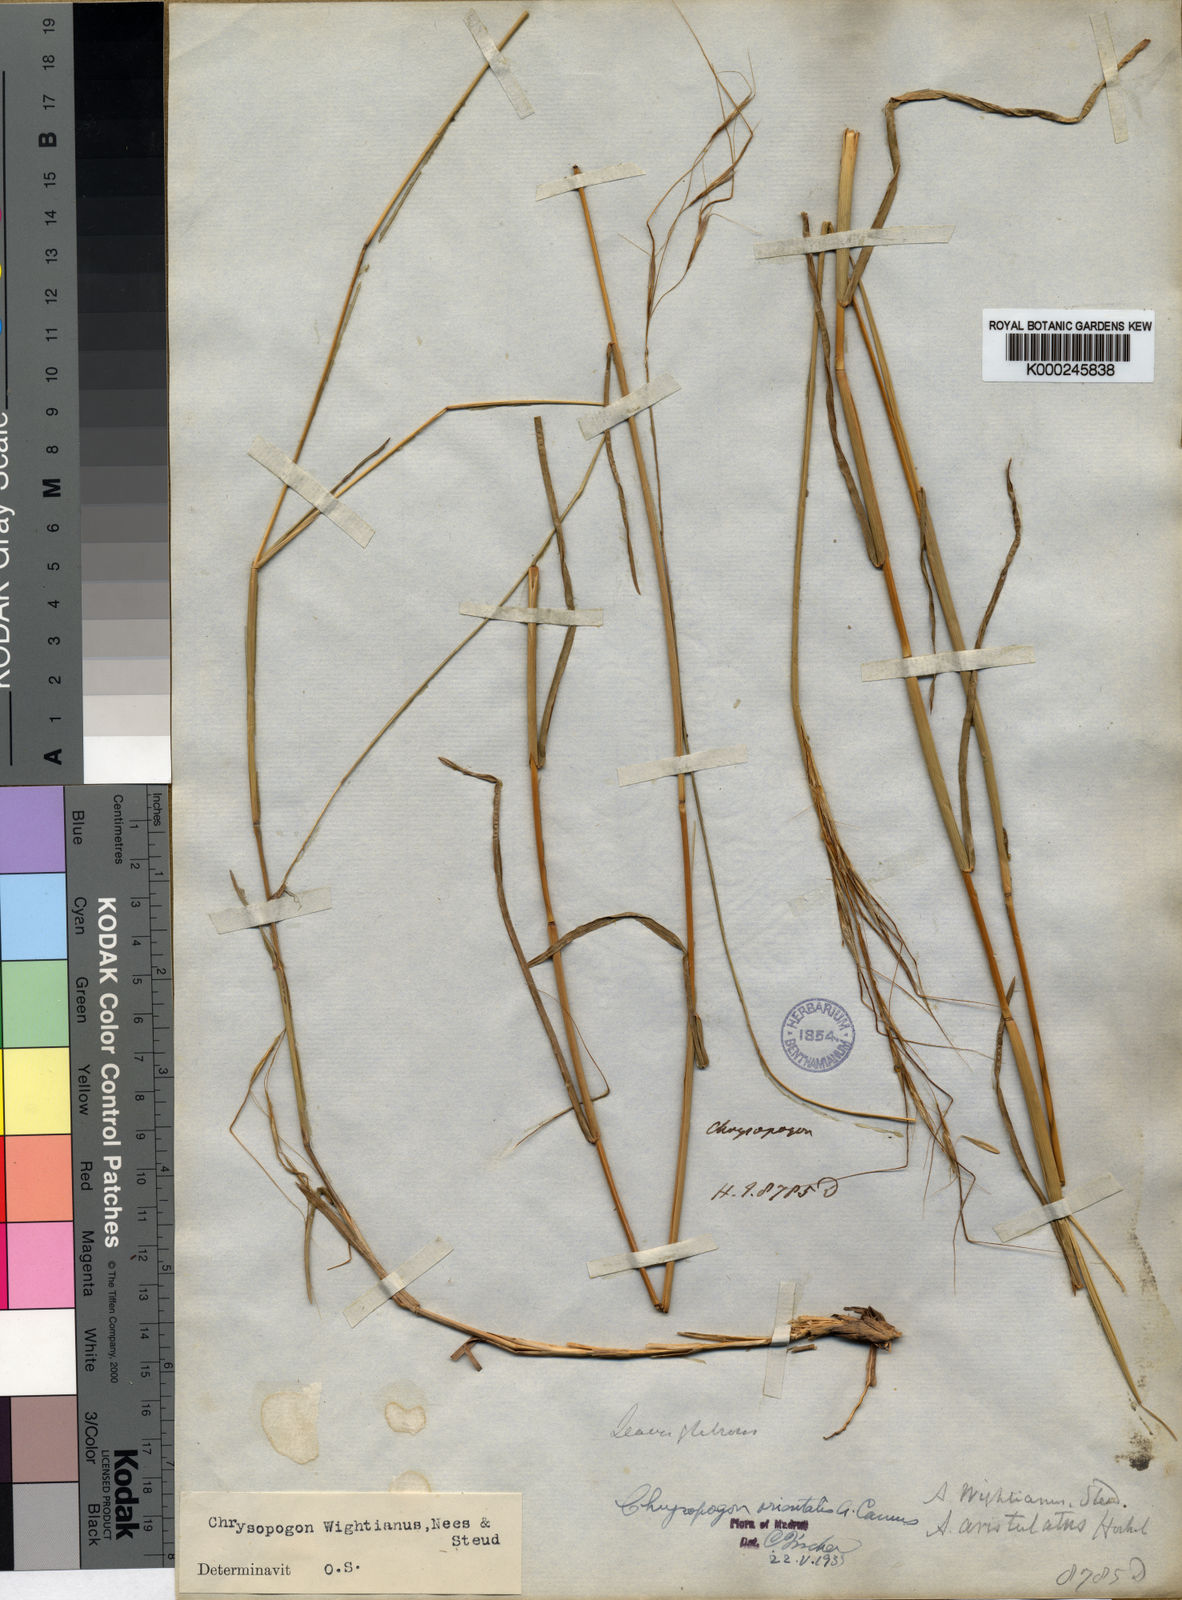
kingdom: Plantae
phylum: Tracheophyta
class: Liliopsida
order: Poales
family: Poaceae
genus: Chrysopogon
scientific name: Chrysopogon orientalis
